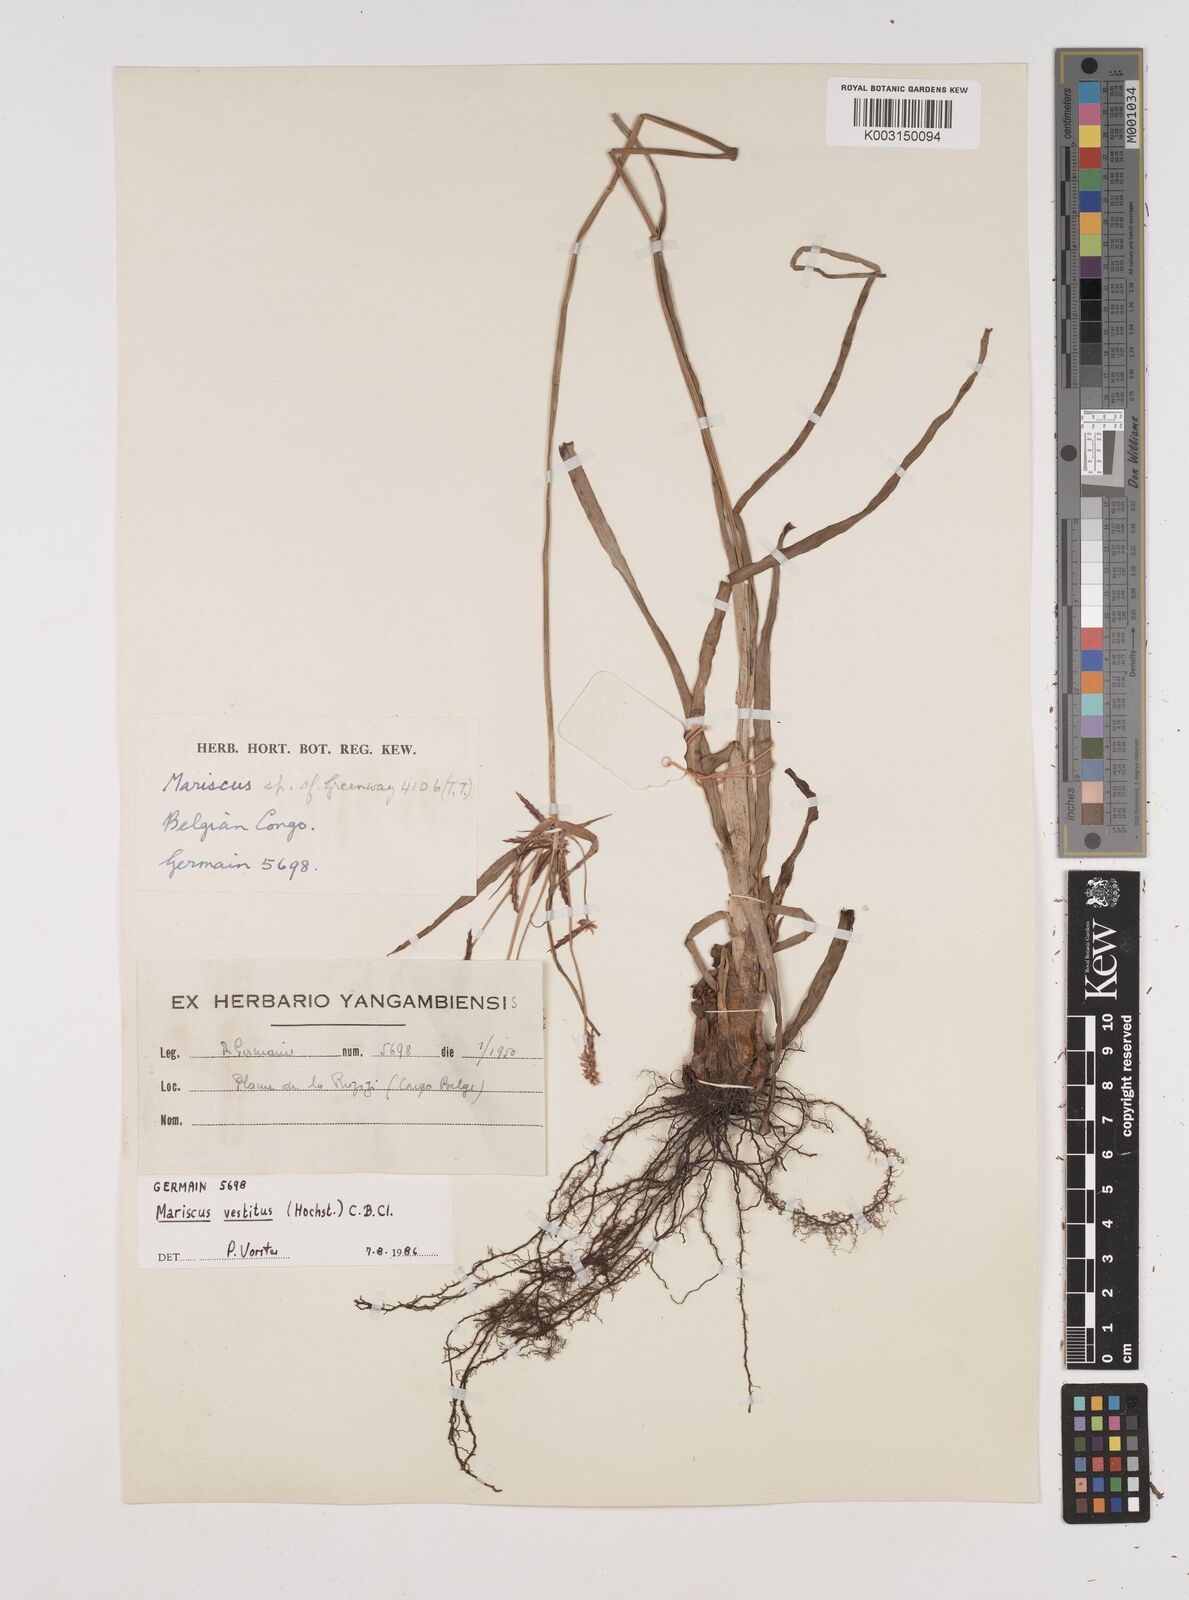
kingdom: Plantae
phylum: Tracheophyta
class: Liliopsida
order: Poales
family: Cyperaceae
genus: Cyperus
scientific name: Cyperus vestitus
